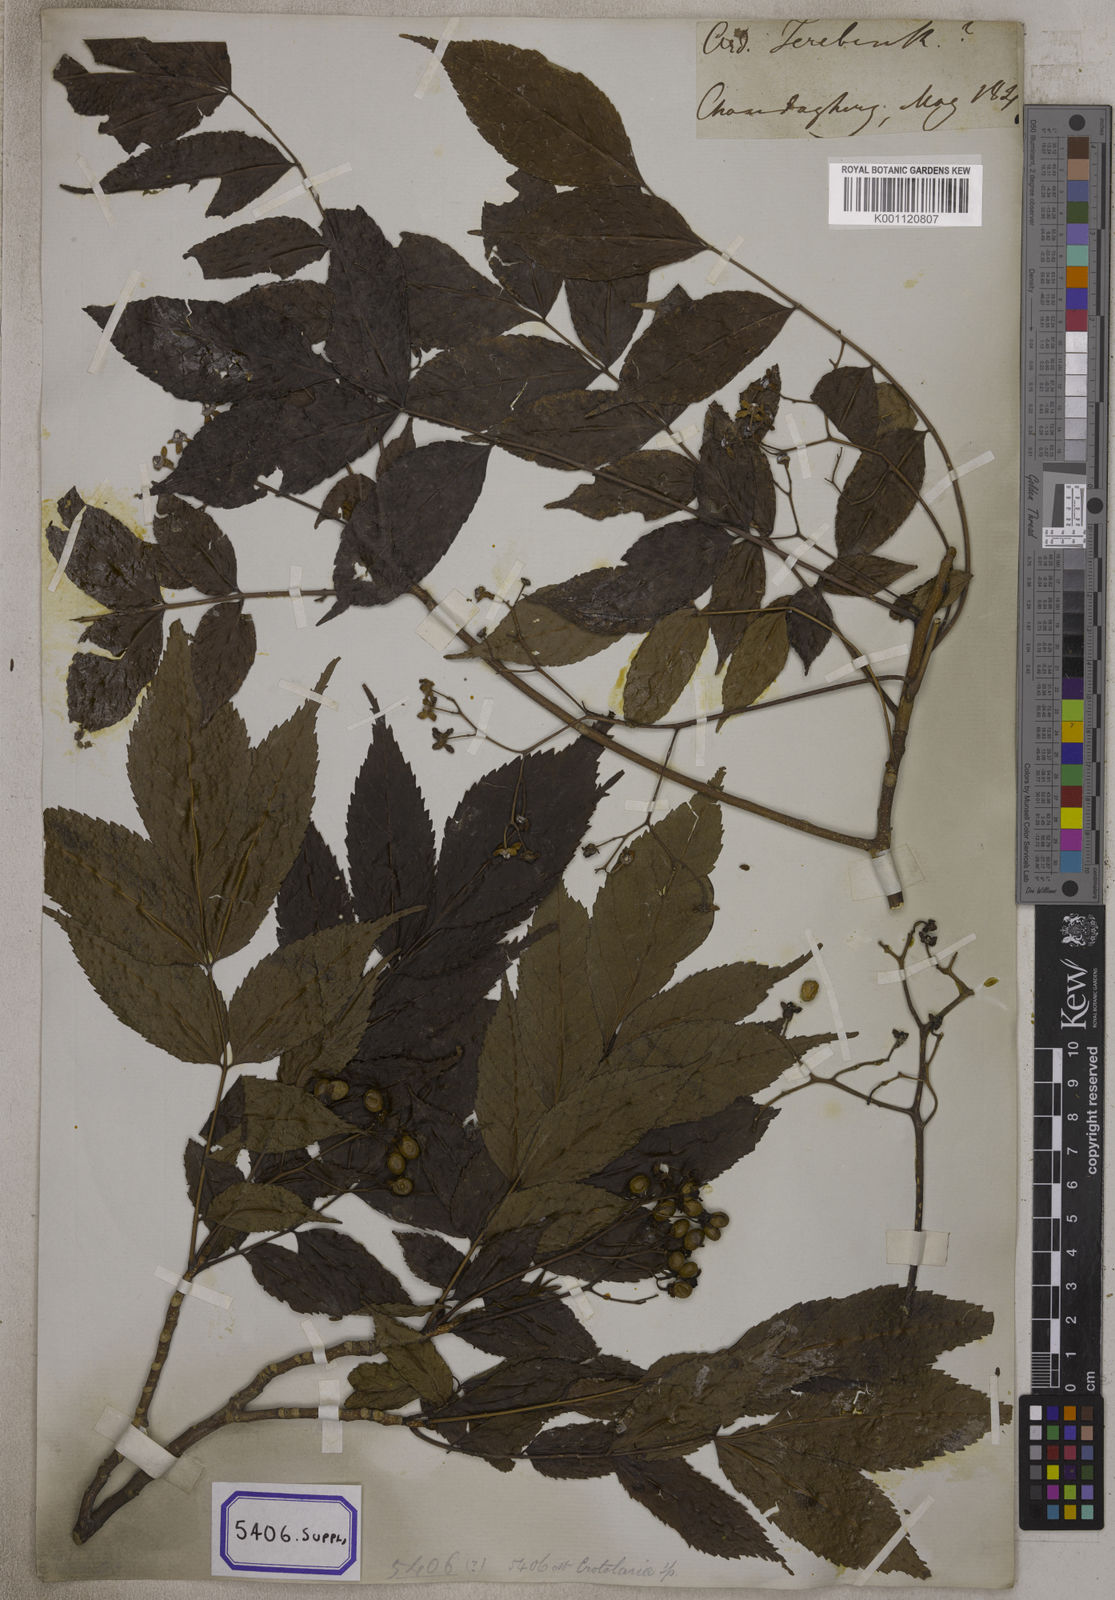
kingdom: Plantae
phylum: Tracheophyta
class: Magnoliopsida
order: Fabales
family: Fabaceae
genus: Crotalaria
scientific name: Crotalaria spectabilis
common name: Showy rattlebox
